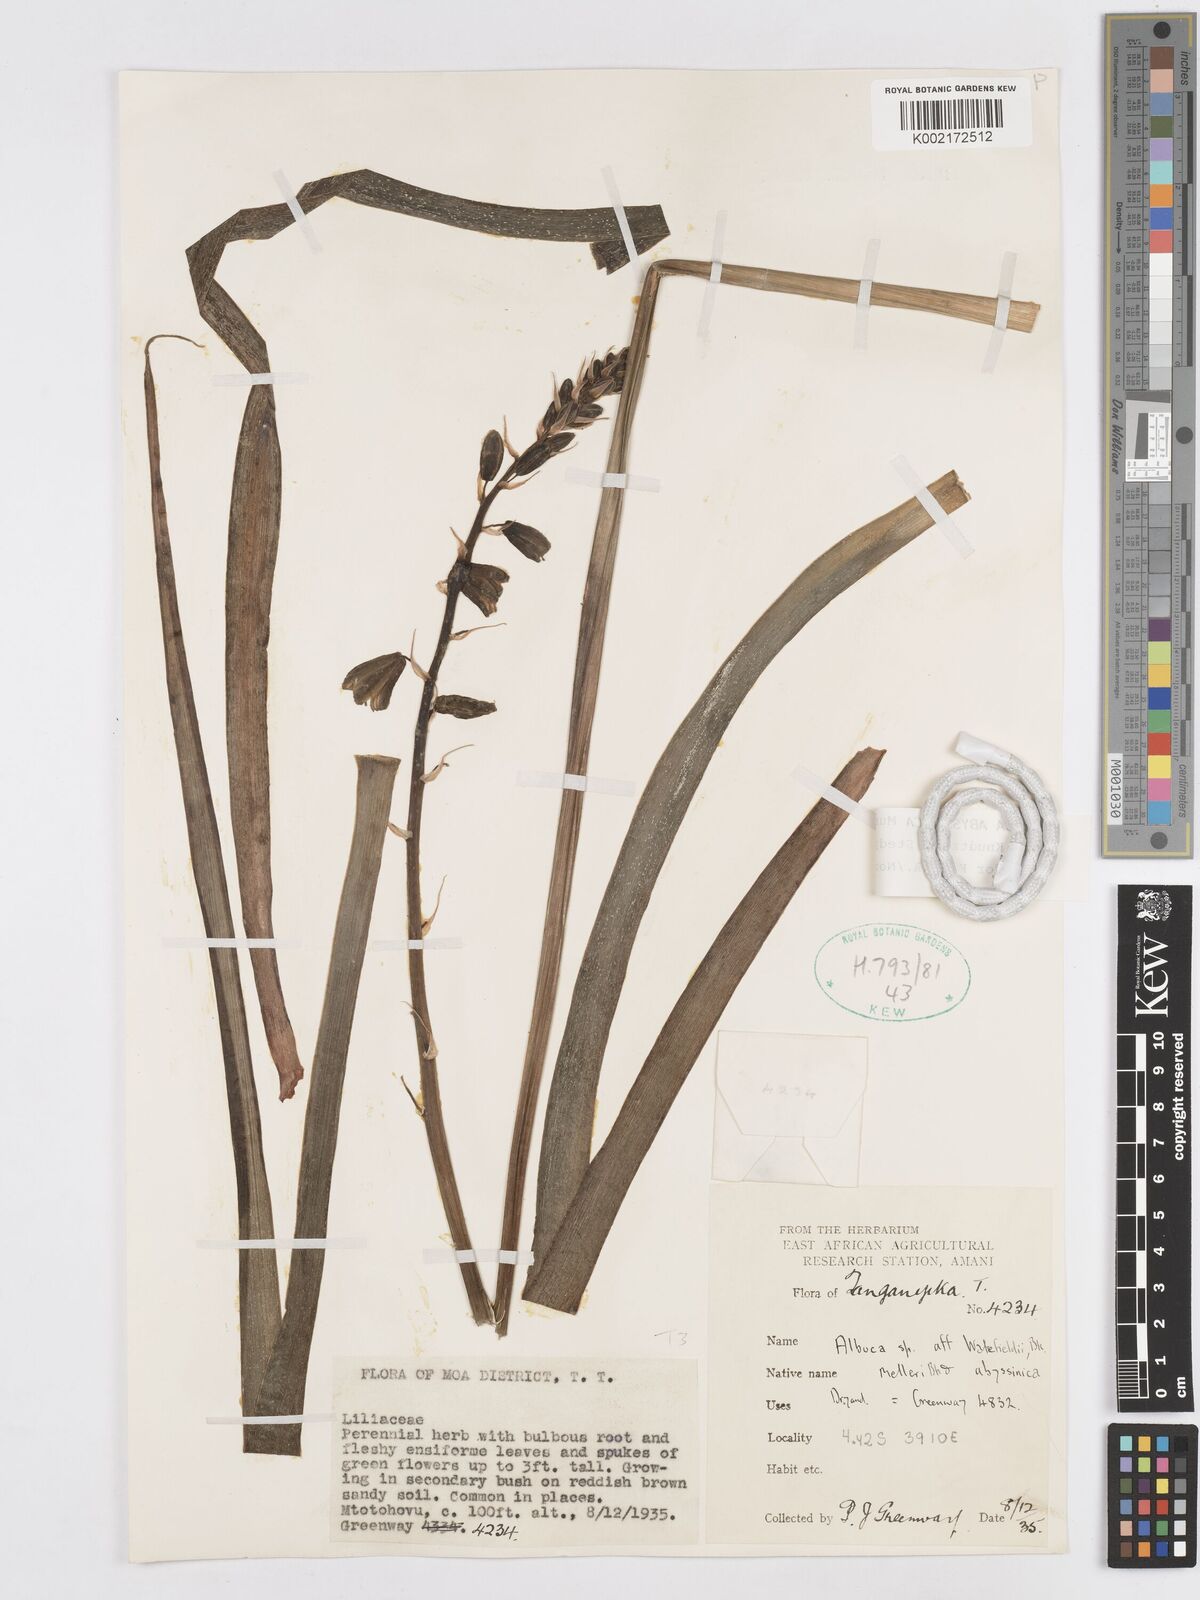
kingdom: Plantae
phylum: Tracheophyta
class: Liliopsida
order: Asparagales
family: Asparagaceae
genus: Albuca
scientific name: Albuca abyssinica
